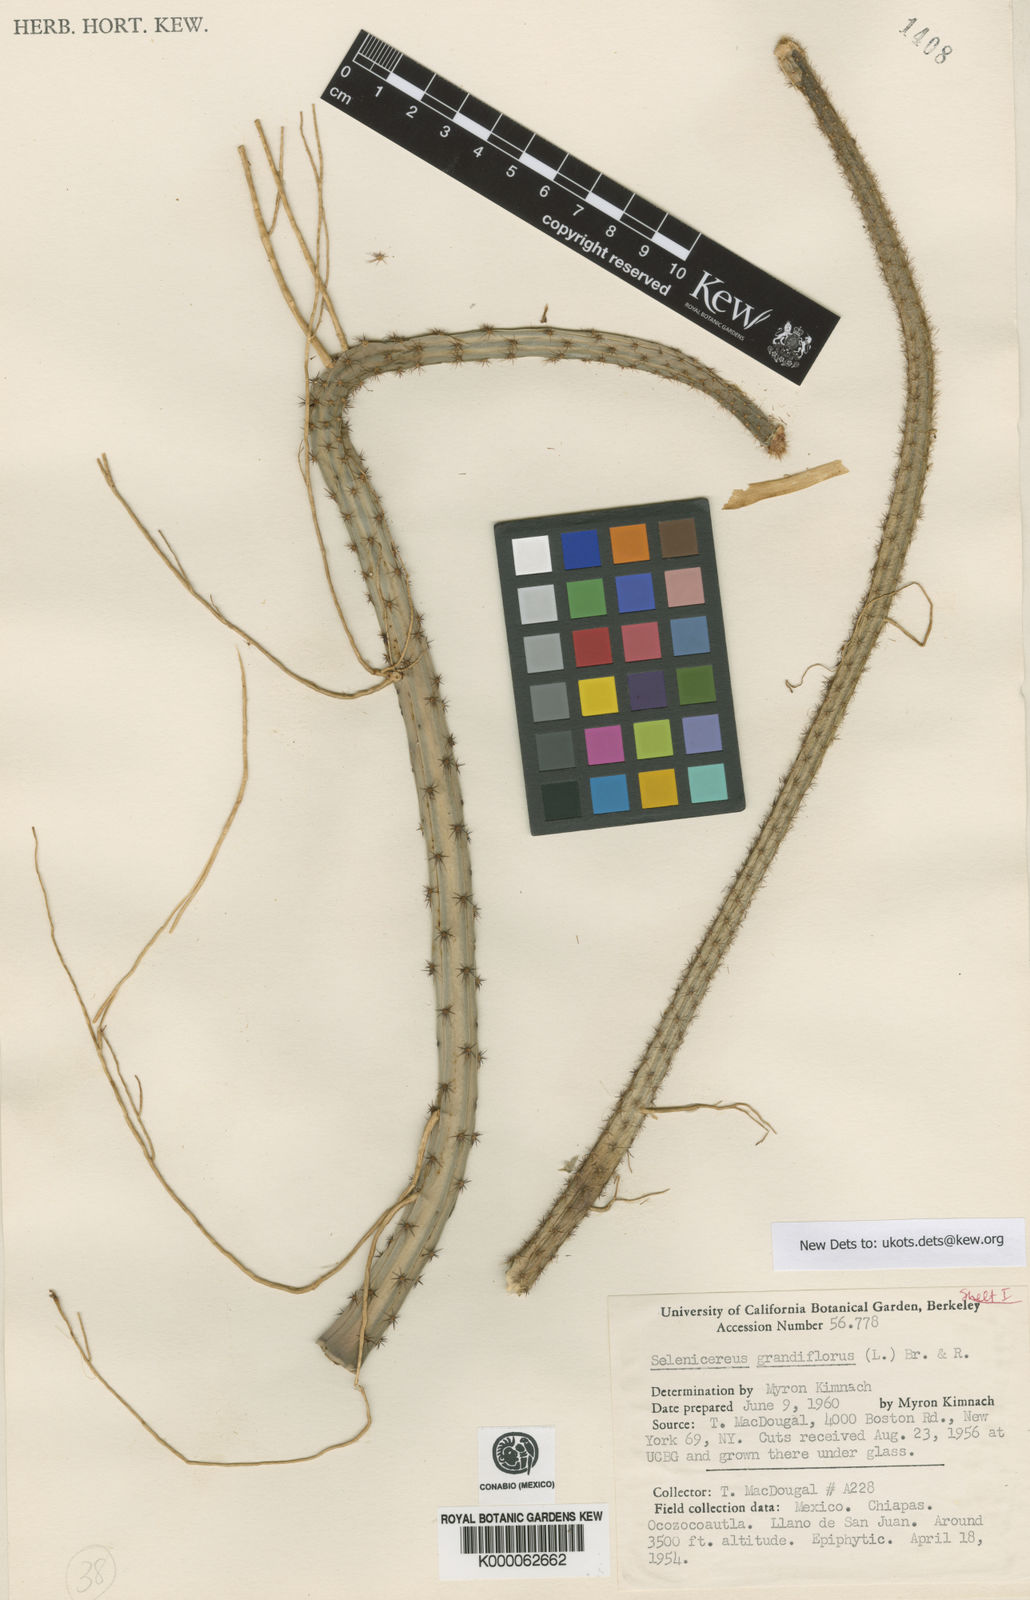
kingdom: Plantae
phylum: Tracheophyta
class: Magnoliopsida
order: Caryophyllales
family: Cactaceae
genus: Selenicereus
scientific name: Selenicereus grandiflorus
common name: Queen of the night
